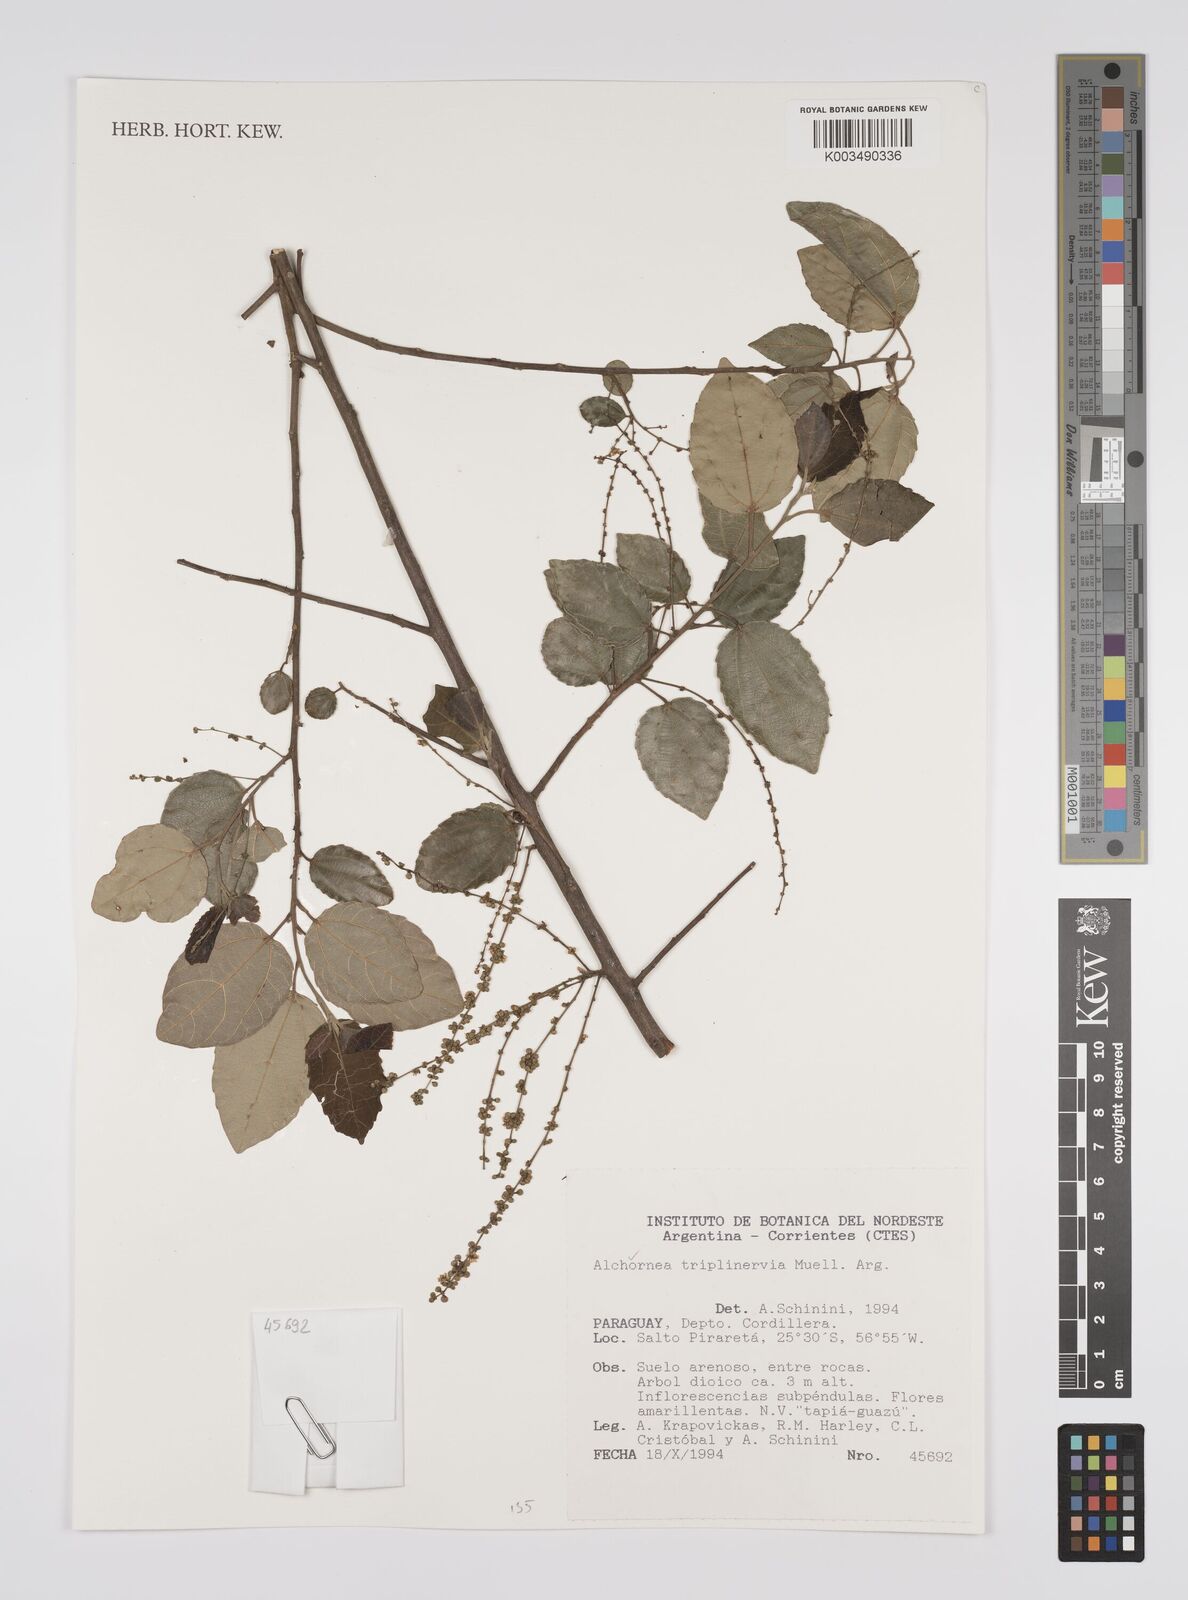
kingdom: Plantae
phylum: Tracheophyta
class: Magnoliopsida
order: Malpighiales
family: Euphorbiaceae
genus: Alchornea
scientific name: Alchornea triplinervia
